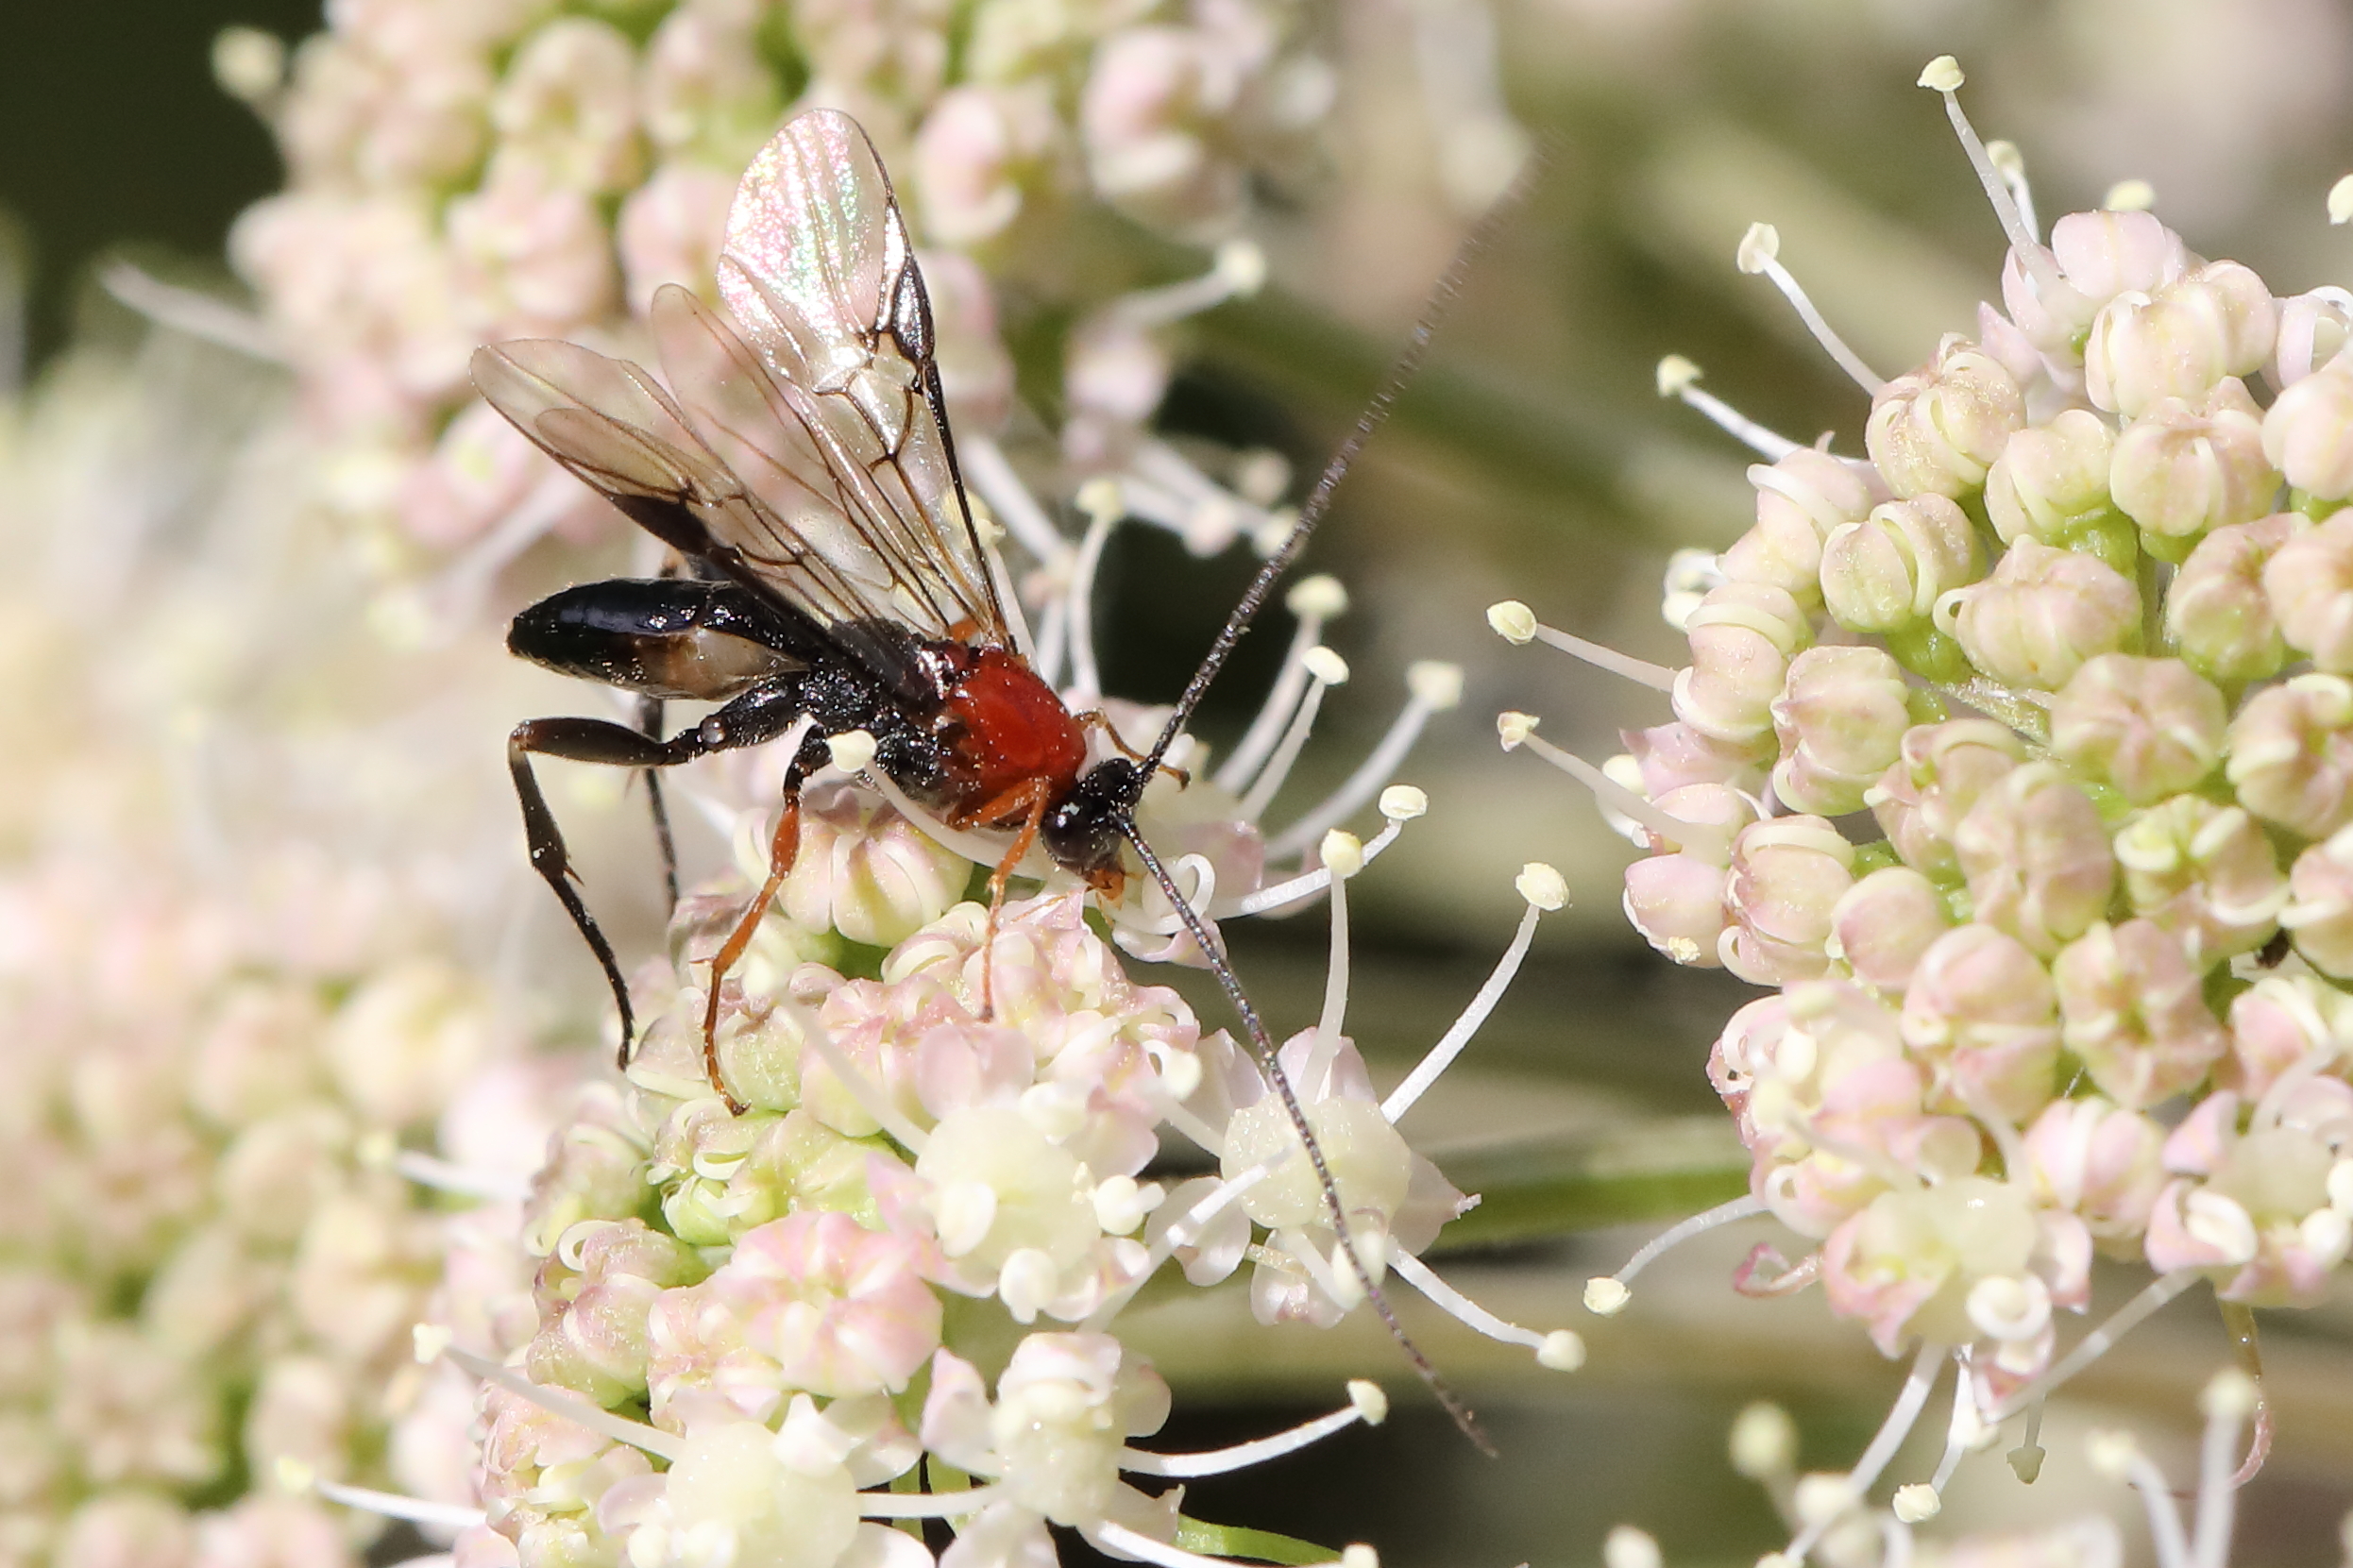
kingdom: Animalia
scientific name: Animalia
